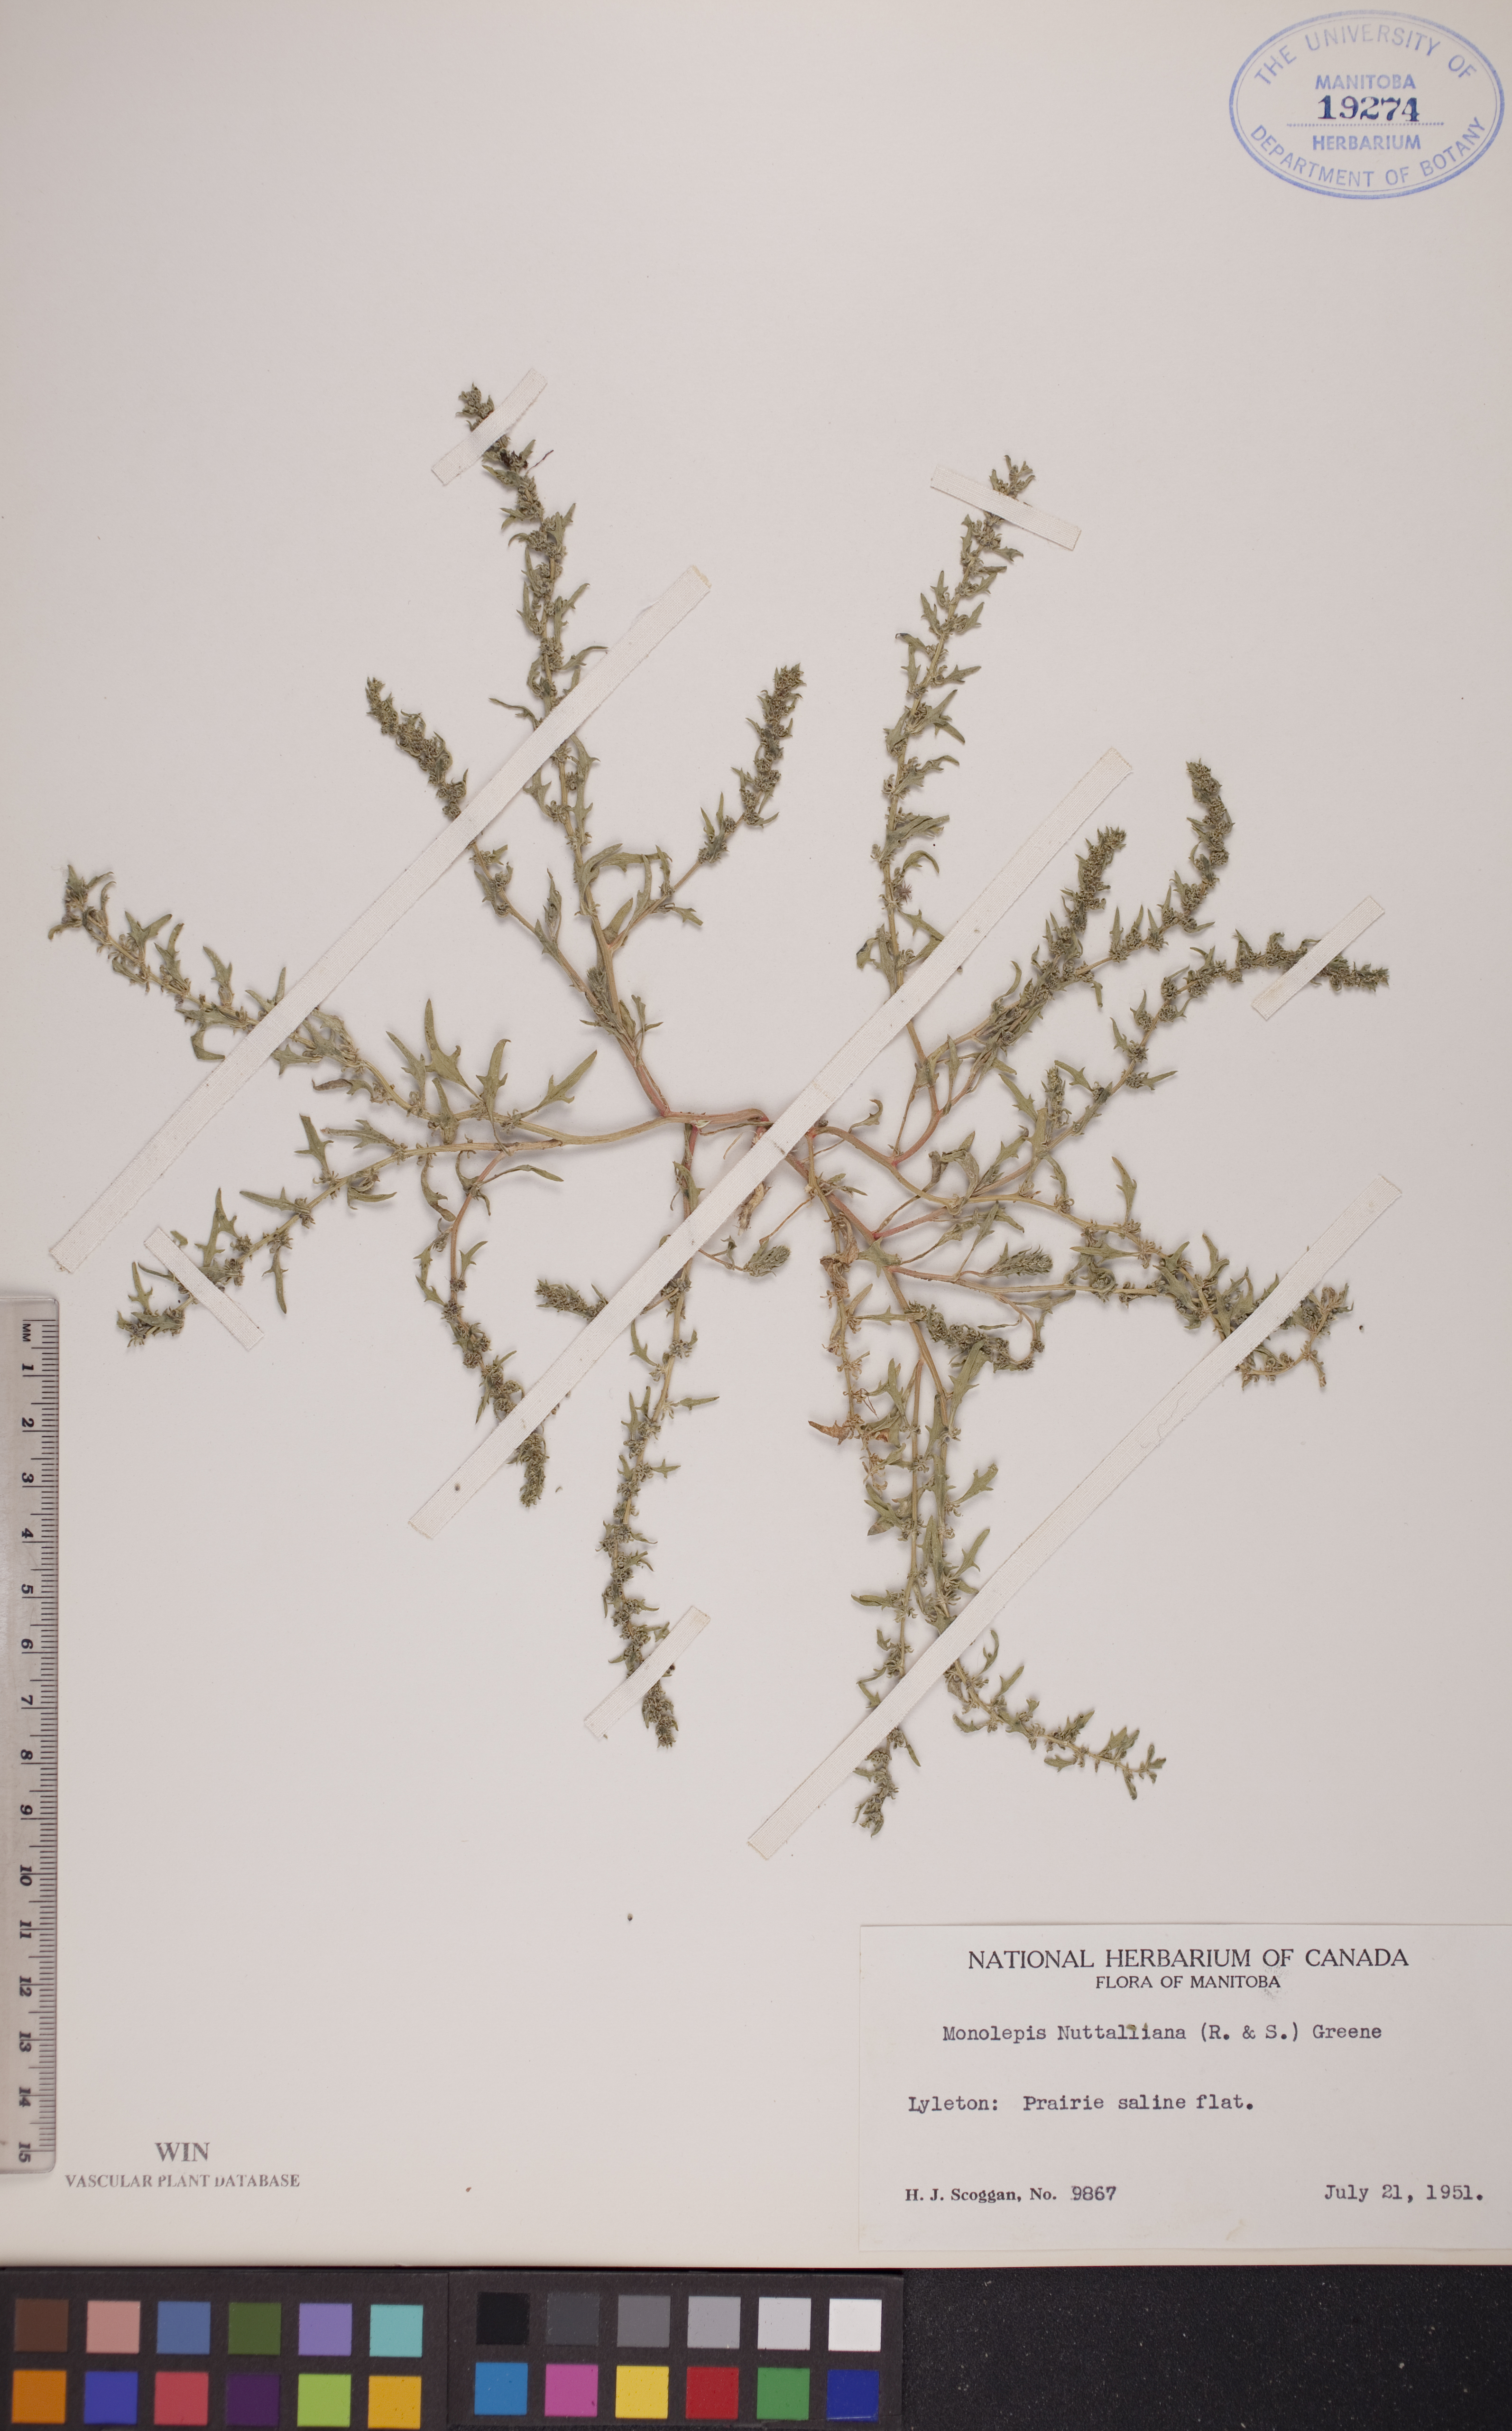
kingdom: Plantae
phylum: Tracheophyta
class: Magnoliopsida
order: Caryophyllales
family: Amaranthaceae
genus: Blitum
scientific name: Blitum nuttallianum
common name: Poverty-weed
